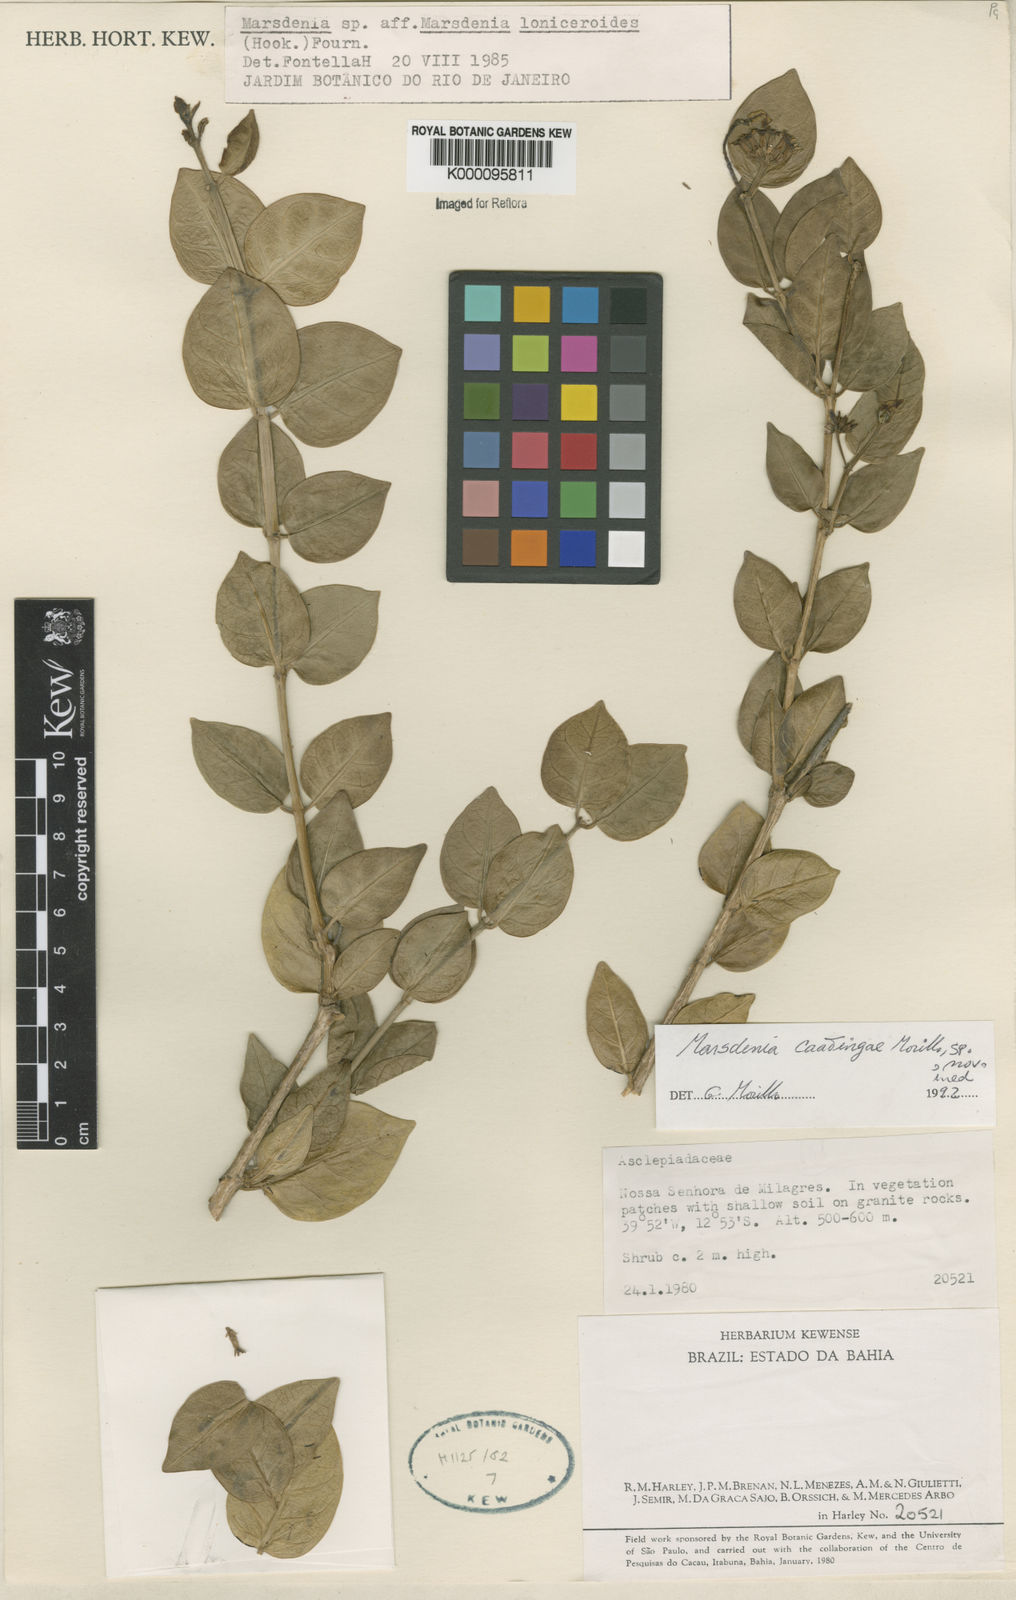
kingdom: Plantae
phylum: Tracheophyta
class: Magnoliopsida
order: Gentianales
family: Apocynaceae
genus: Ruehssia
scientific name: Ruehssia caatingae
